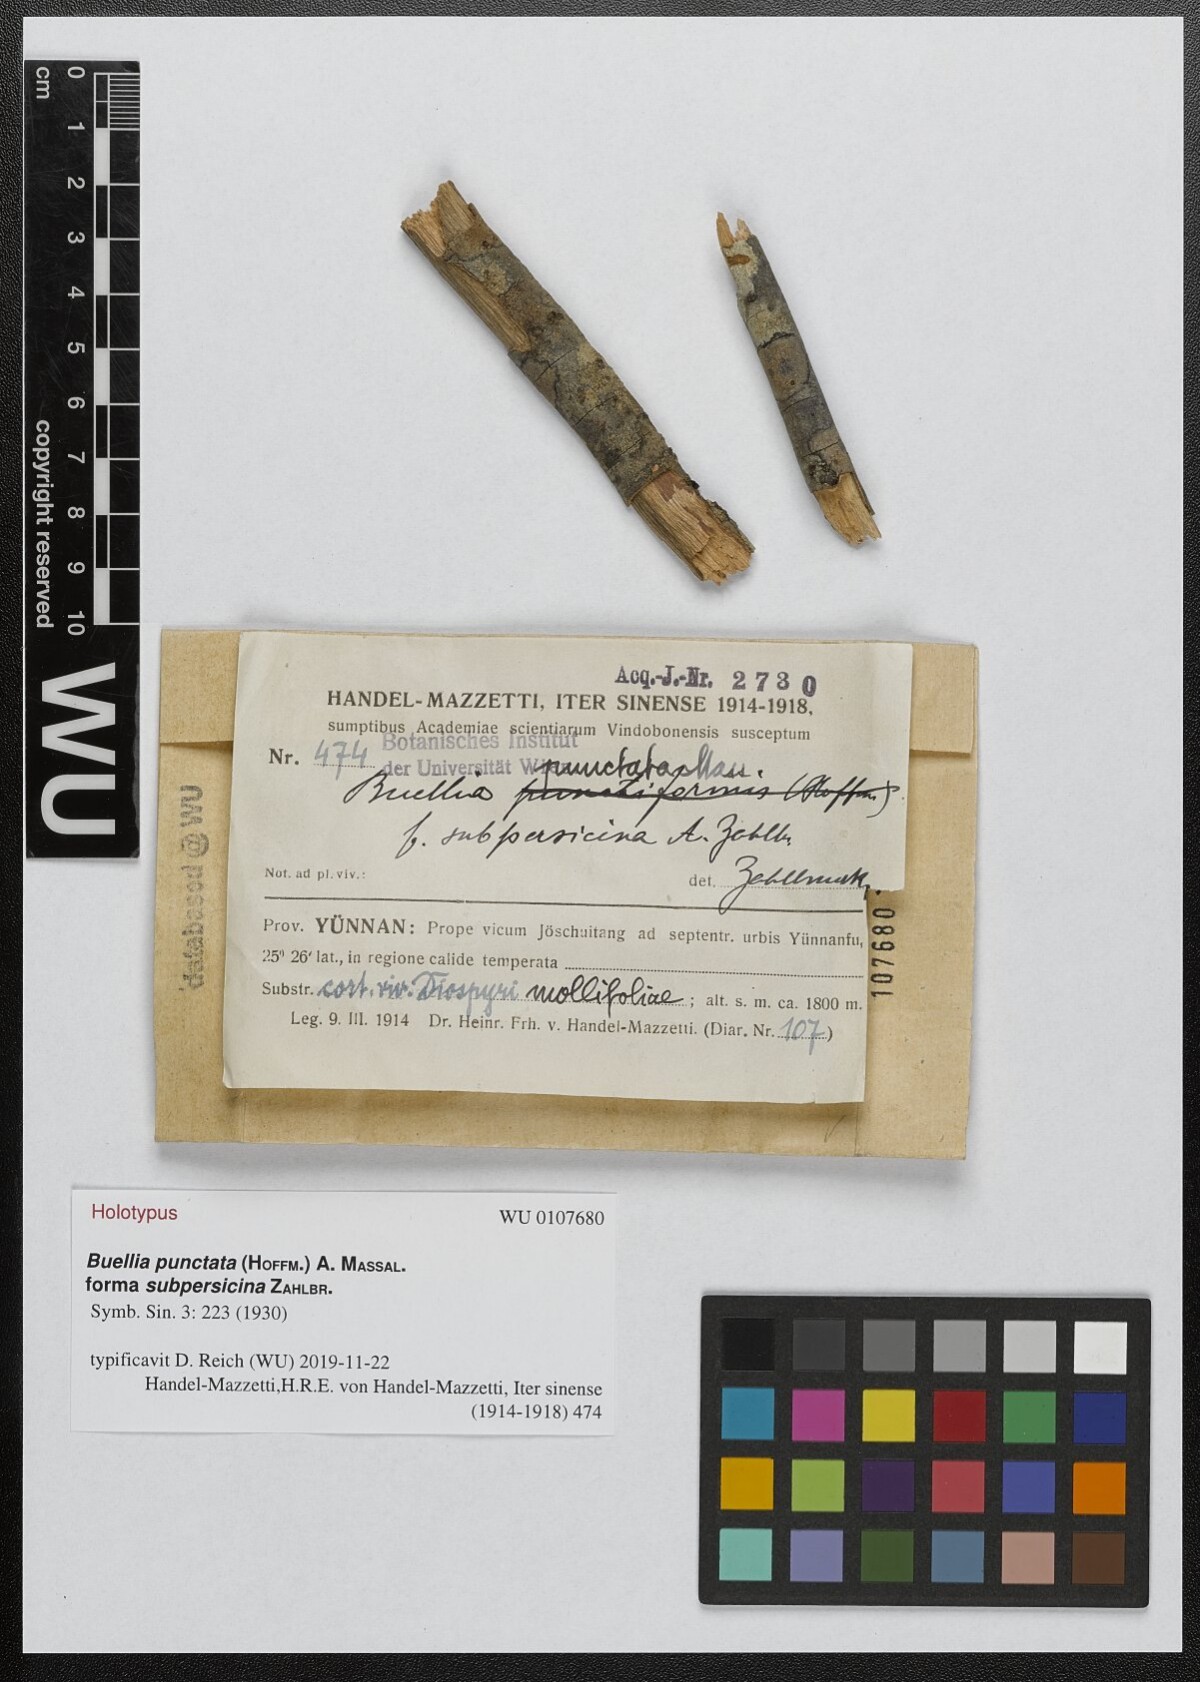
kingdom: Fungi
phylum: Ascomycota
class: Lecanoromycetes
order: Caliciales
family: Caliciaceae
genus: Amandinea
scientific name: Amandinea punctata
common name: Tiny button lichen
